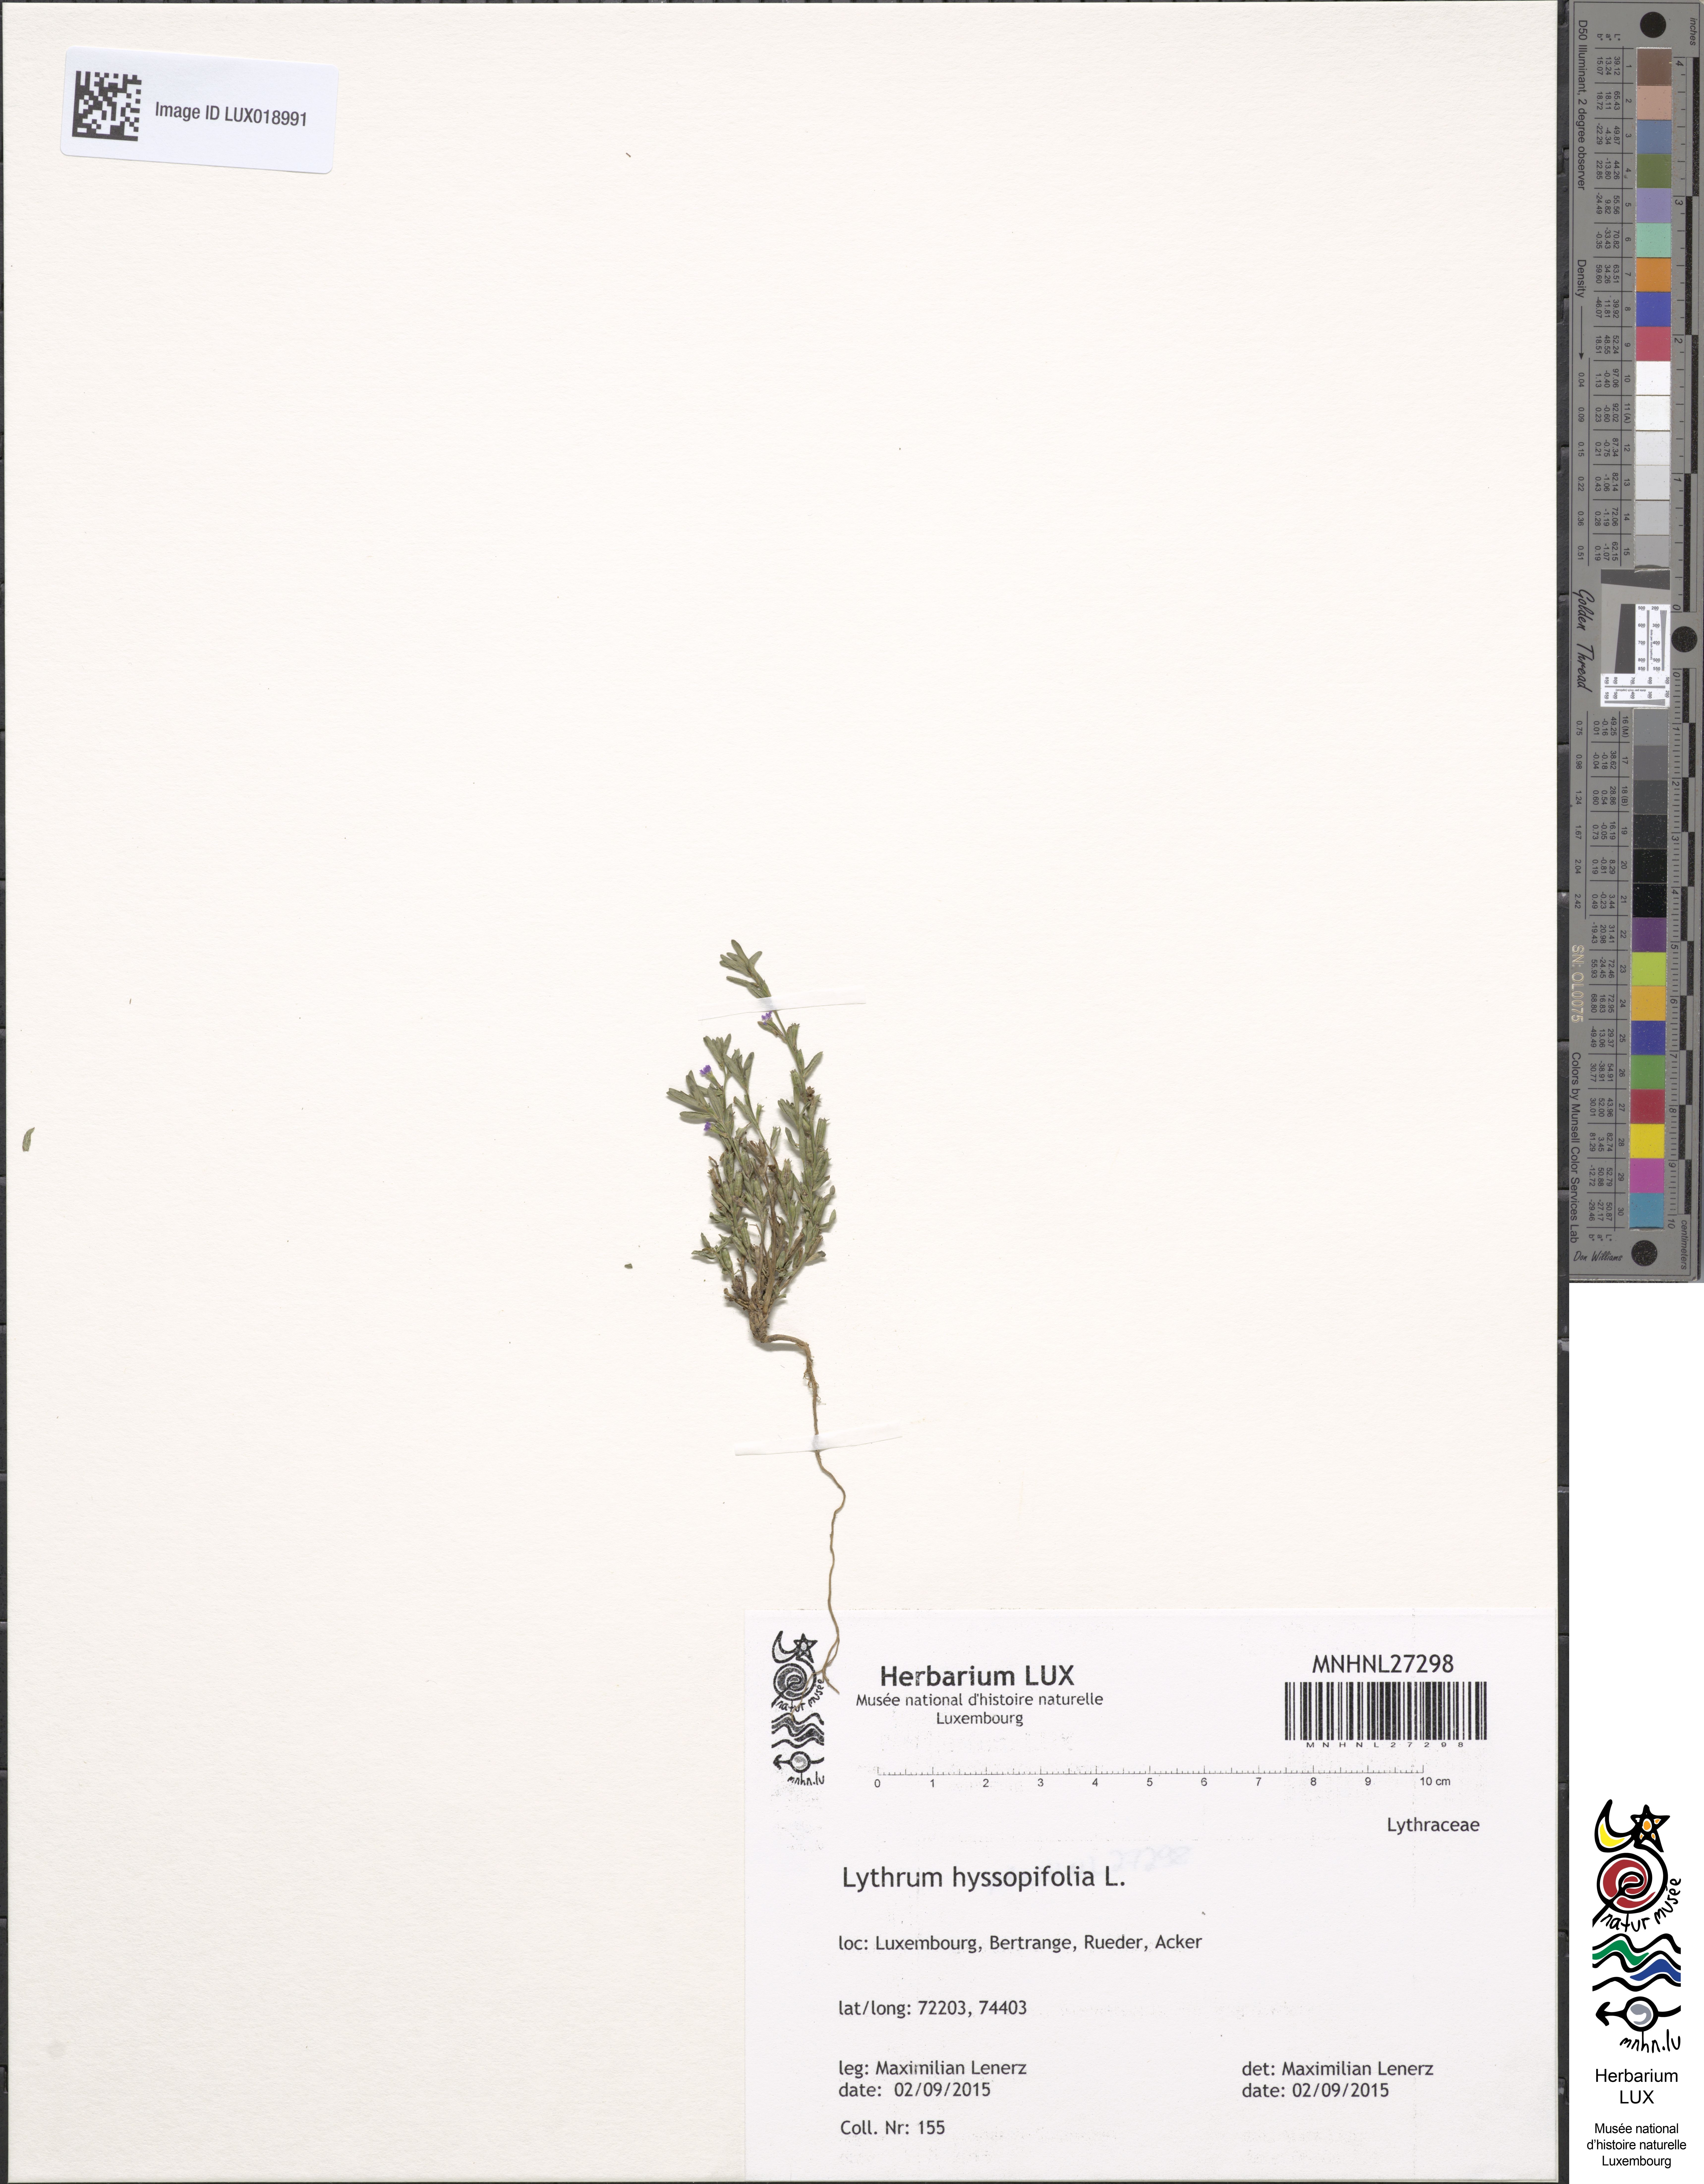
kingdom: Plantae
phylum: Tracheophyta
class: Magnoliopsida
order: Myrtales
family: Lythraceae
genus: Lythrum
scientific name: Lythrum hyssopifolia
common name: Grass-poly
